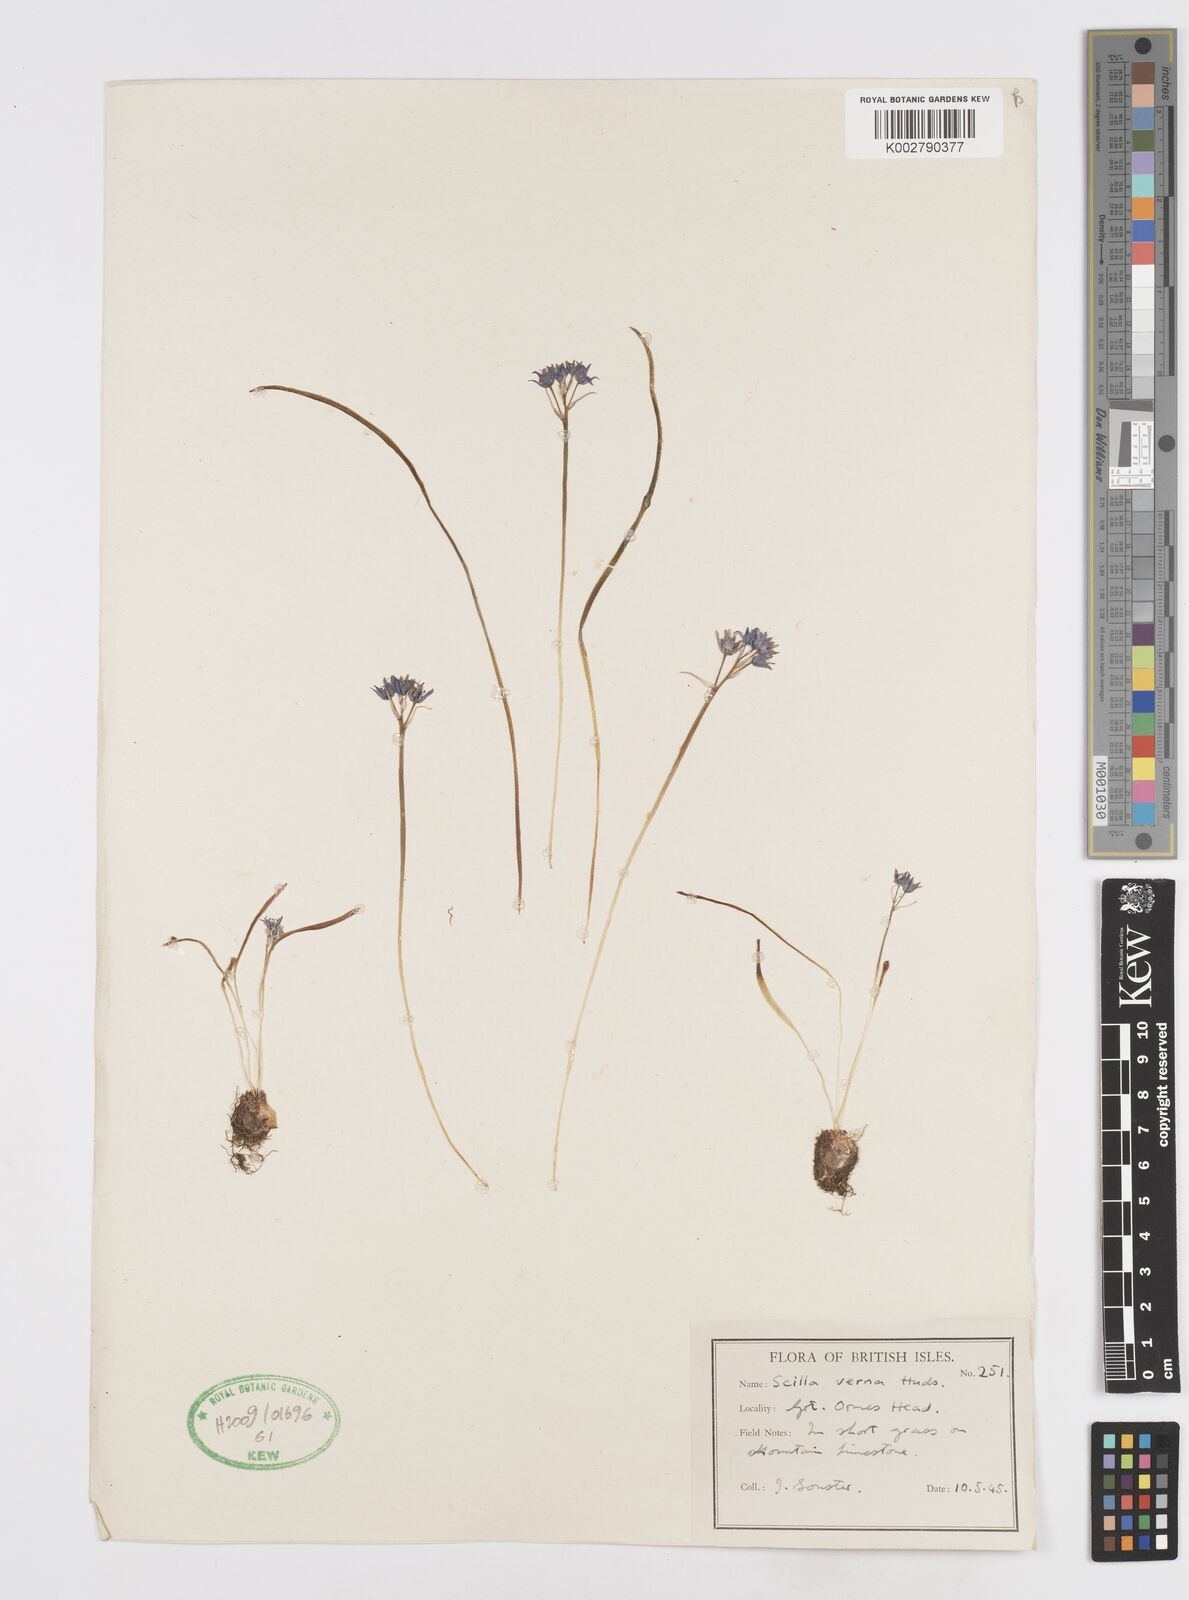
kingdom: Plantae
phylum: Tracheophyta
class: Liliopsida
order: Asparagales
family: Asparagaceae
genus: Scilla
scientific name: Scilla verna
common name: Spring squill
